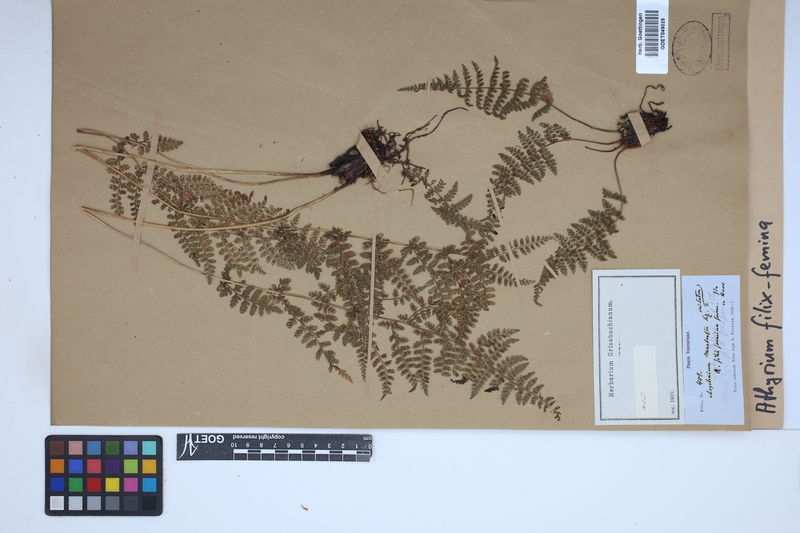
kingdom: Plantae
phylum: Tracheophyta
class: Polypodiopsida
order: Polypodiales
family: Athyriaceae
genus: Athyrium
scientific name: Athyrium filix-femina
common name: Lady fern
